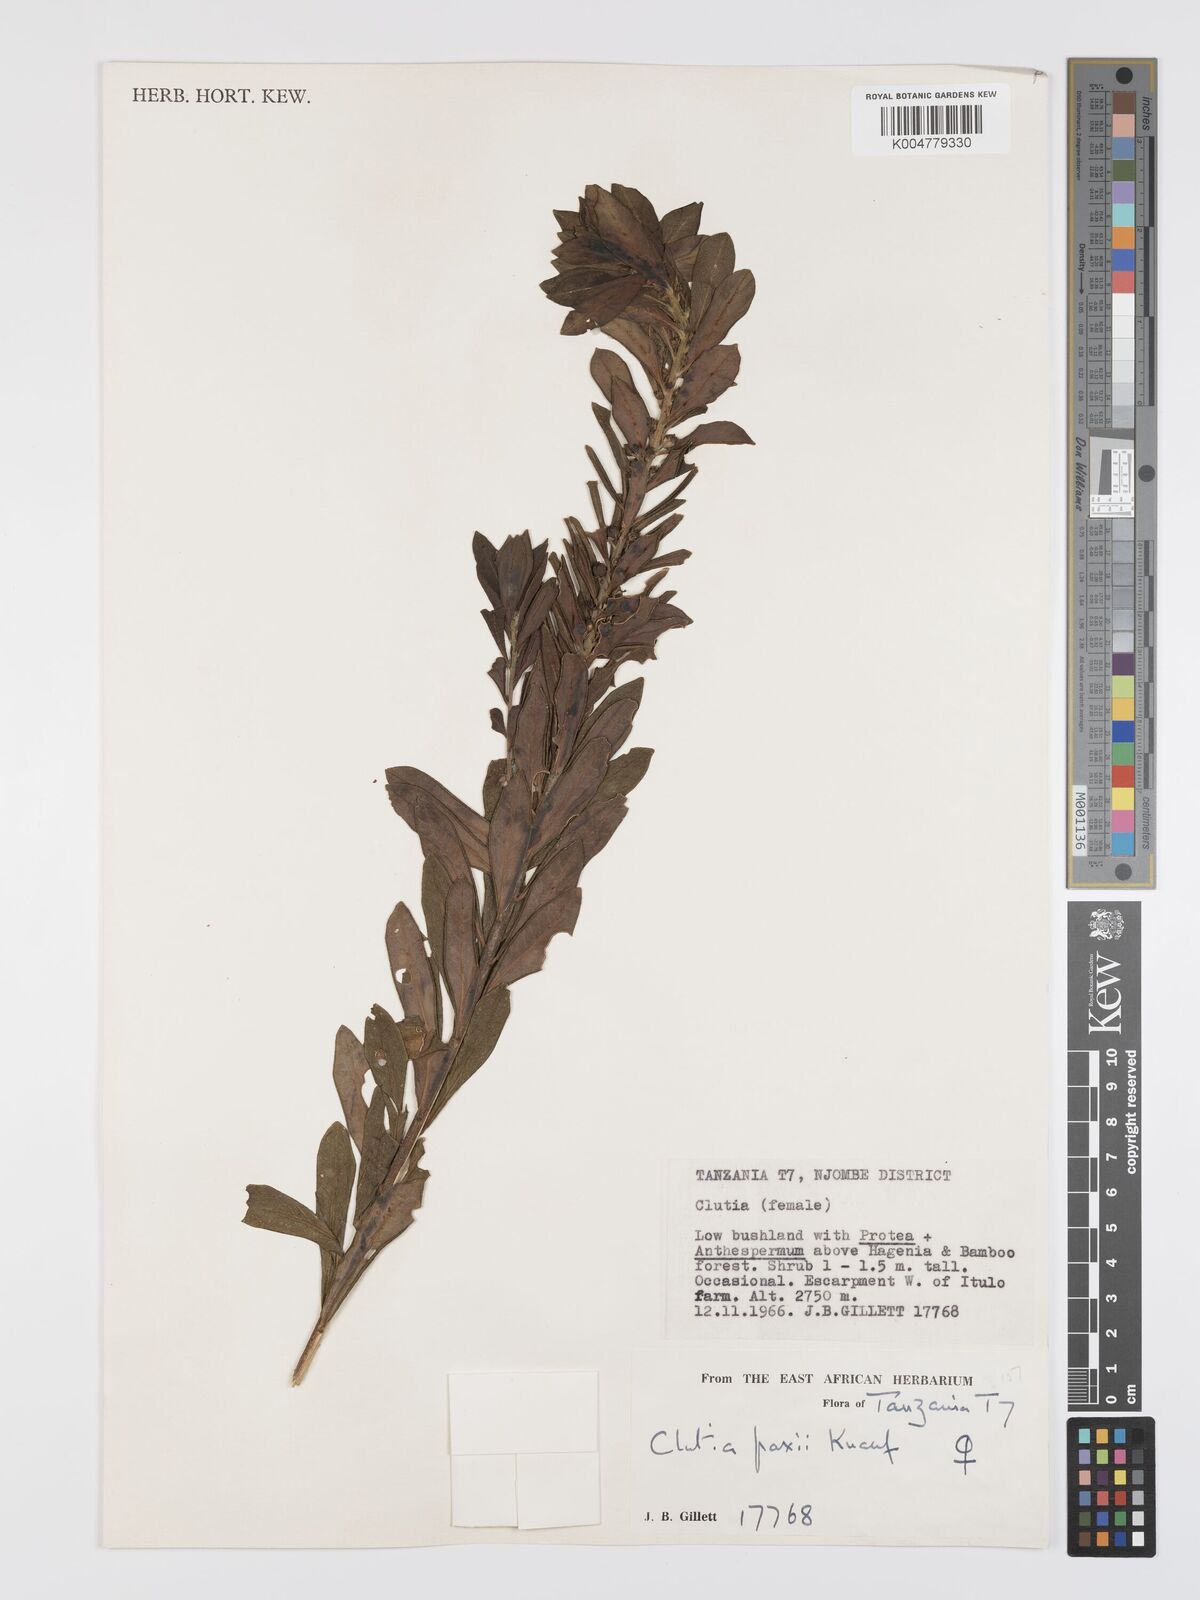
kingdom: Plantae
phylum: Tracheophyta
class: Magnoliopsida
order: Malpighiales
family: Peraceae
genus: Clutia
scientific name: Clutia paxii
